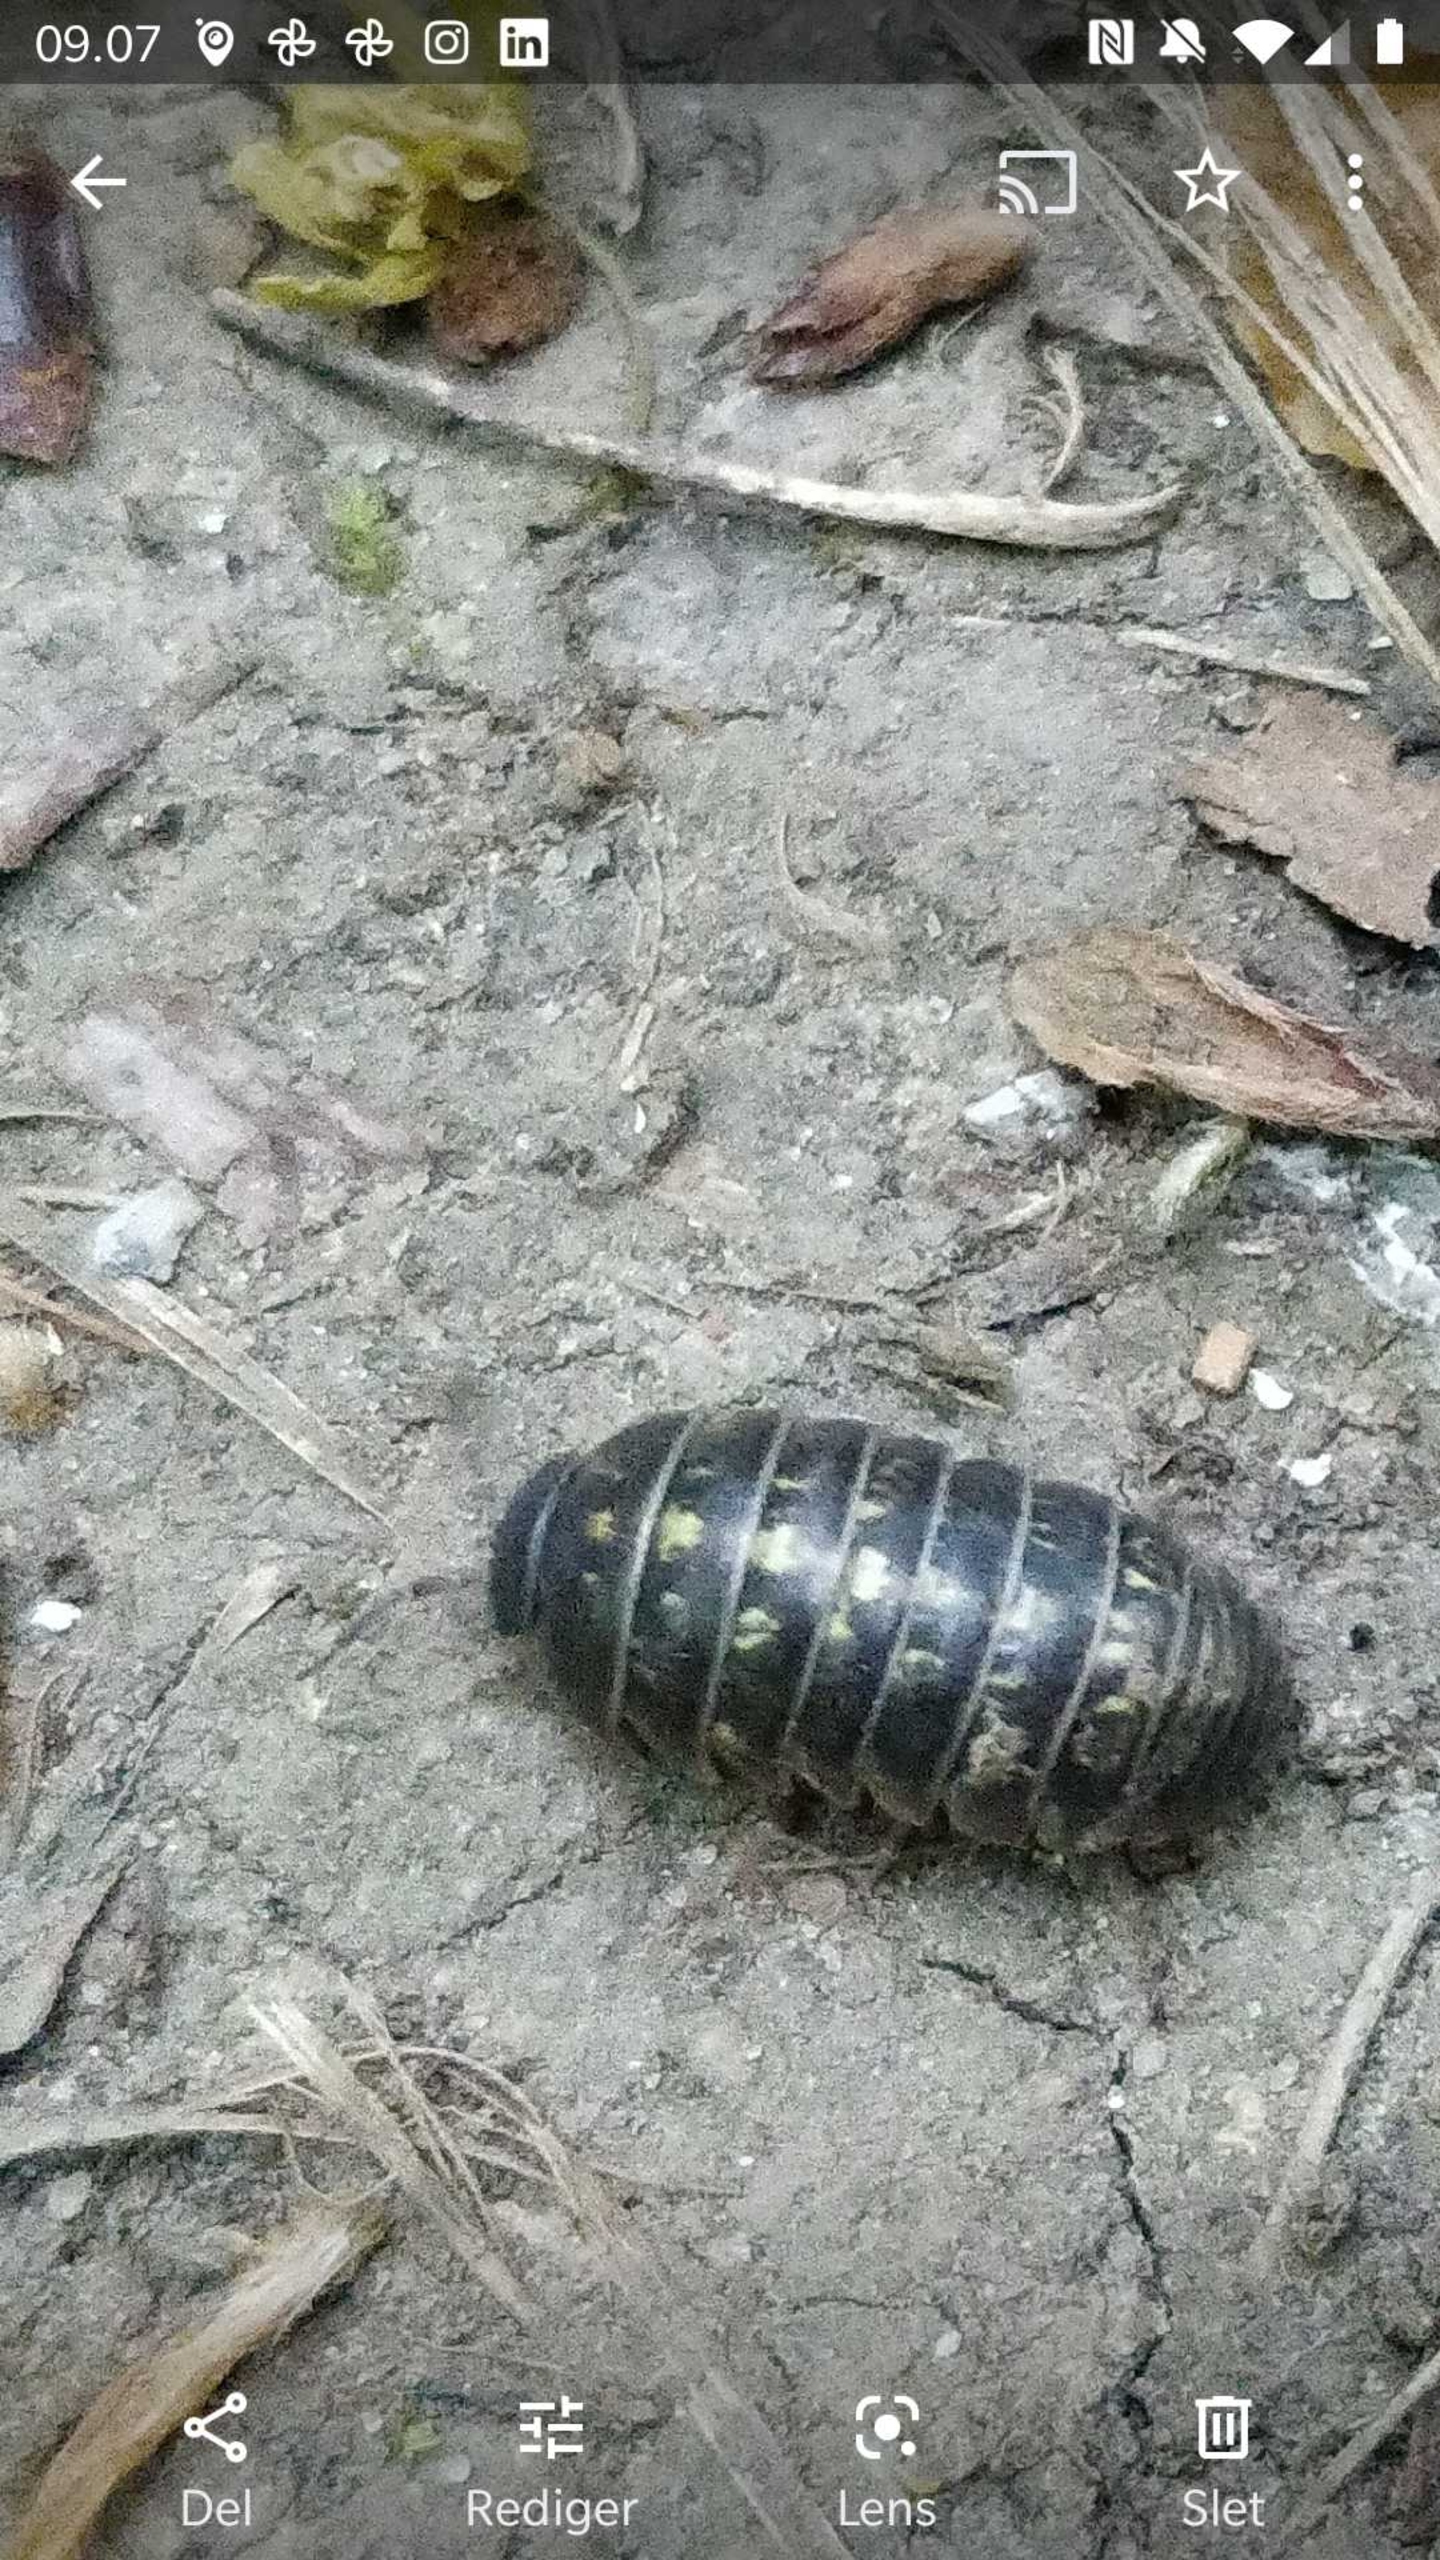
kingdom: Animalia
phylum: Arthropoda
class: Malacostraca
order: Isopoda
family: Armadillidiidae
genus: Armadillidium
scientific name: Armadillidium vulgare
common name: Almindelig kuglebænkebider
